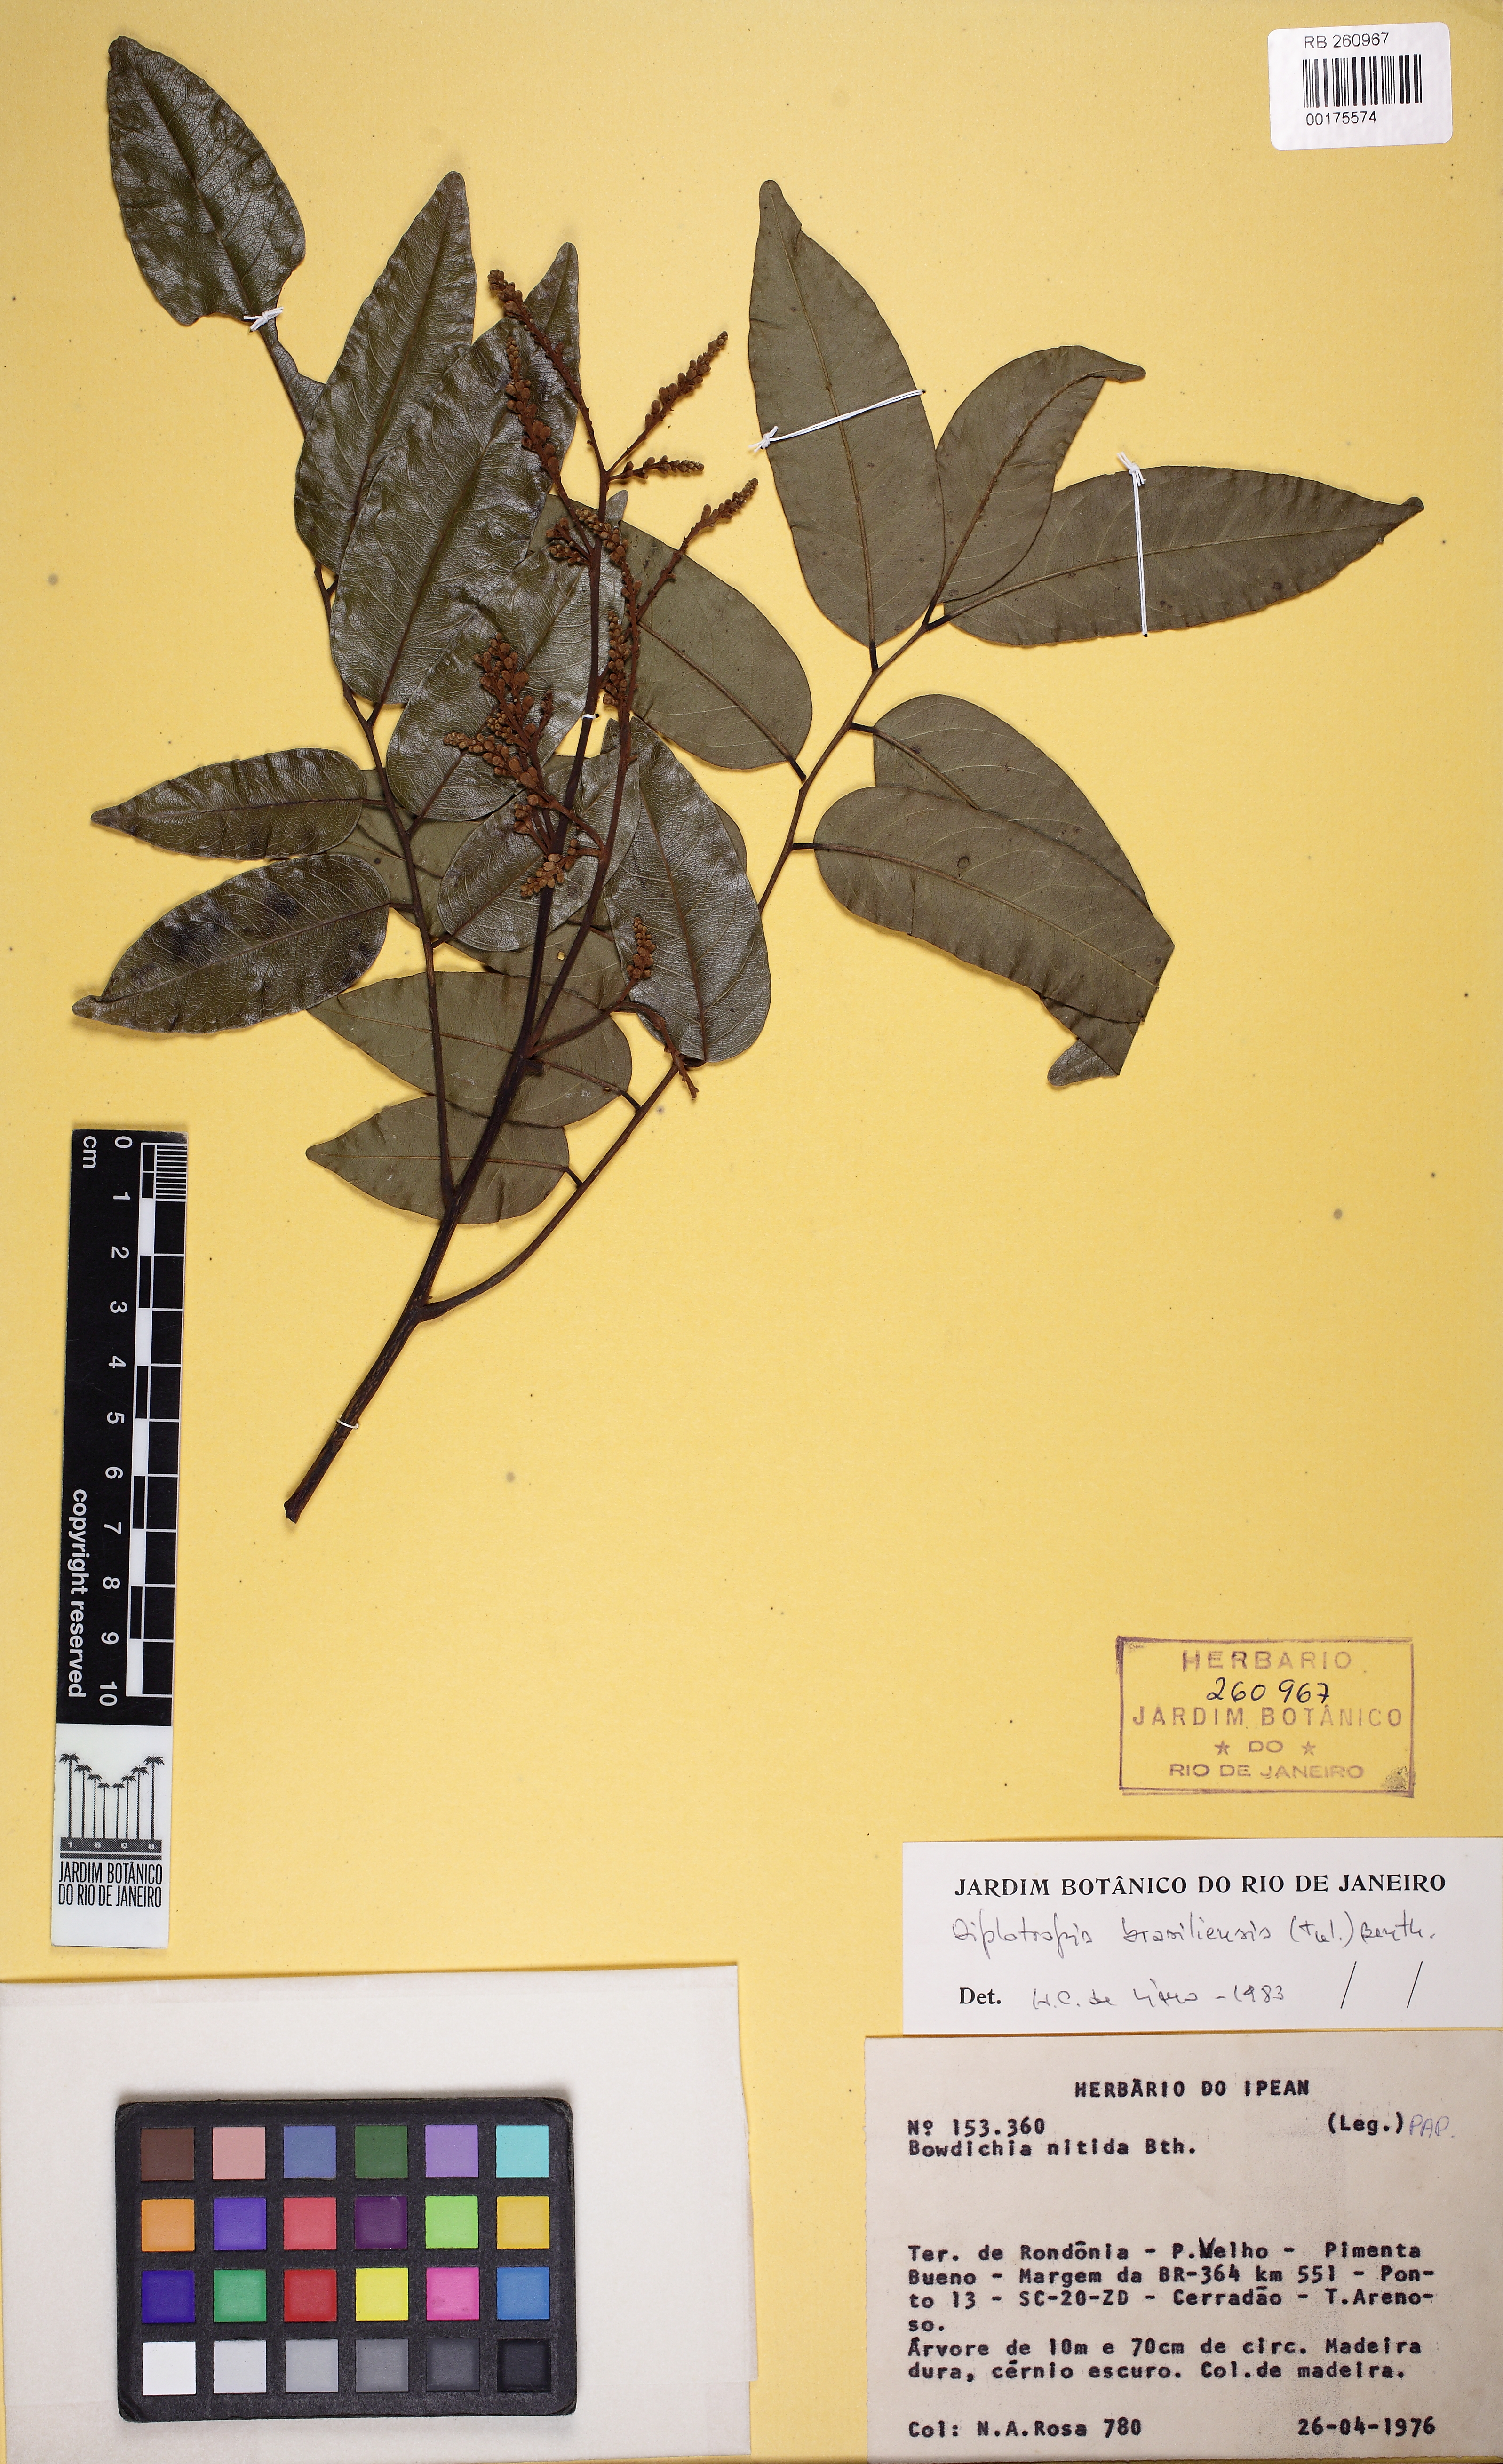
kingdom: Plantae
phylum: Tracheophyta
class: Magnoliopsida
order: Fabales
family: Fabaceae
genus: Diplotropis
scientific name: Diplotropis brasiliensis
